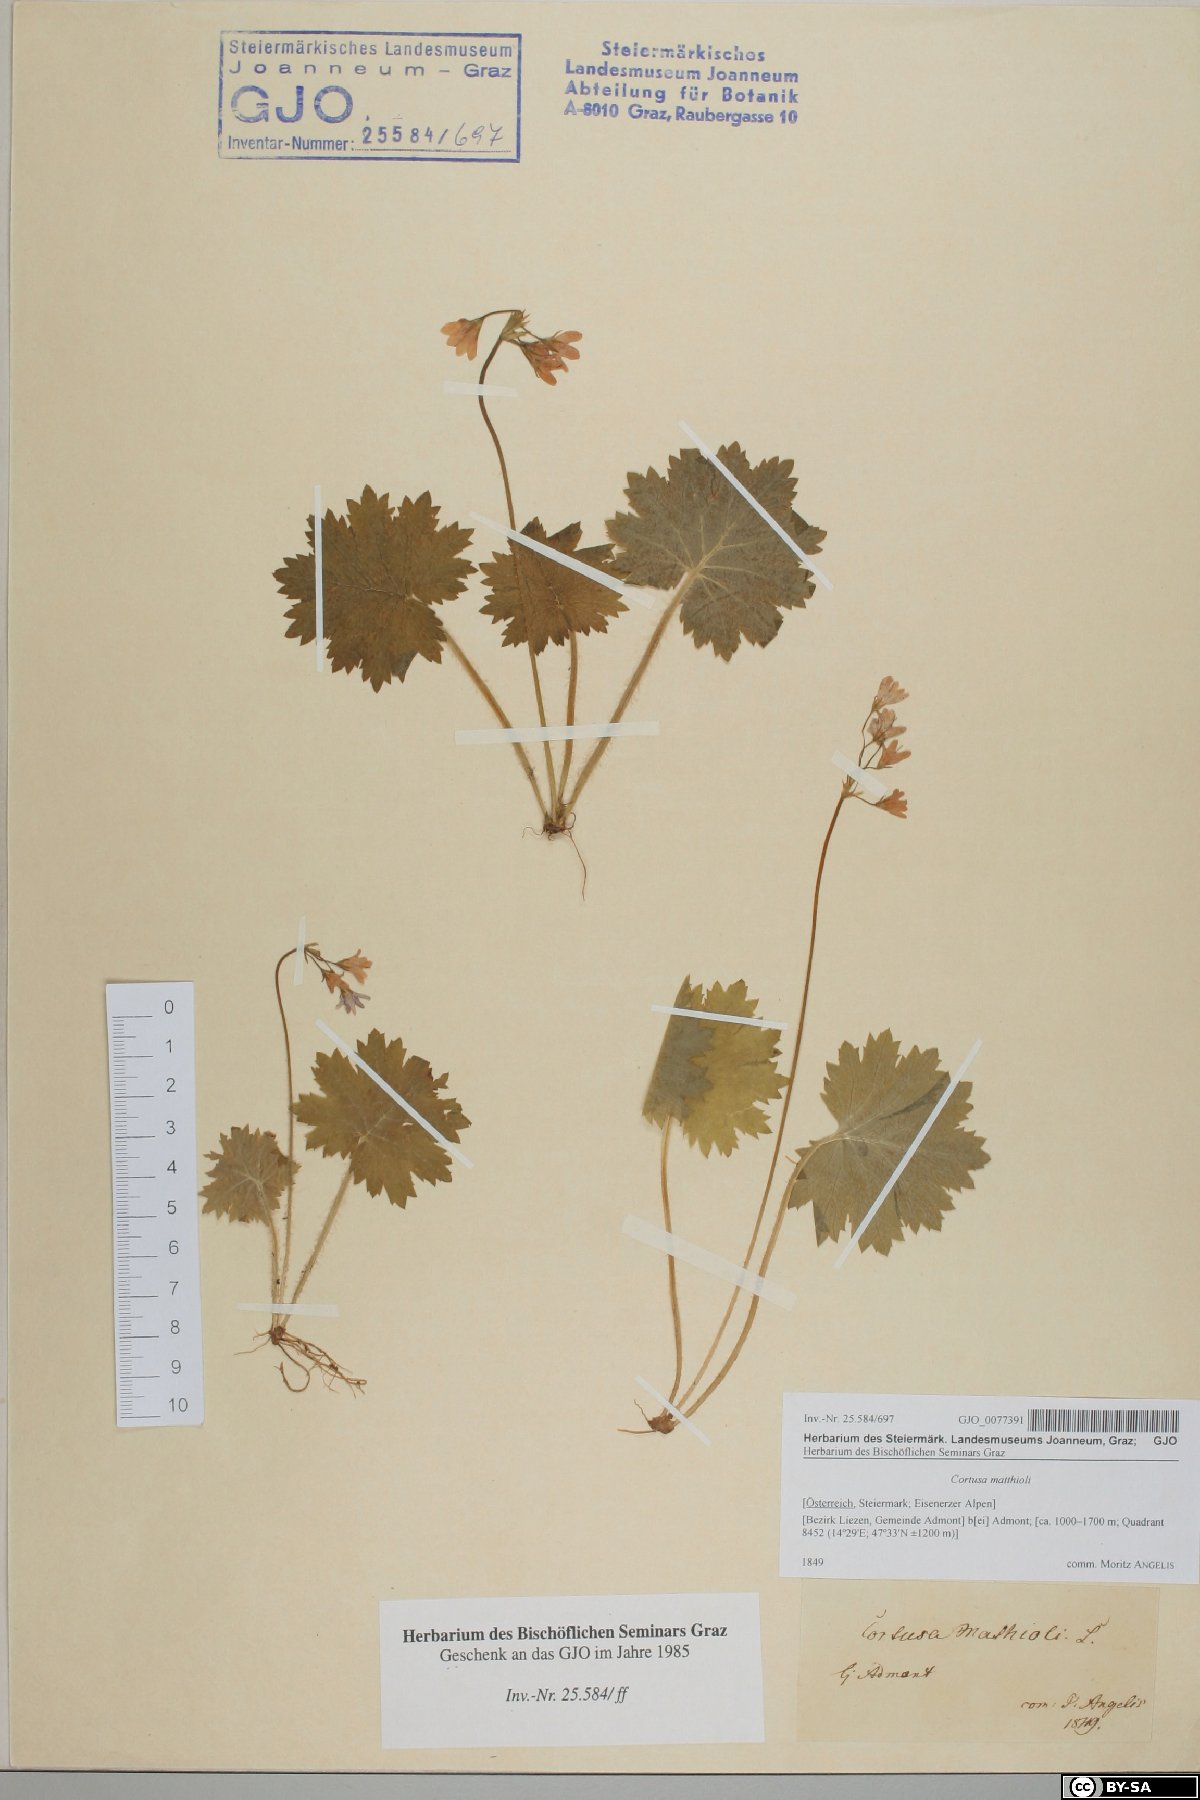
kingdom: Plantae
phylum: Tracheophyta
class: Magnoliopsida
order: Ericales
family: Primulaceae
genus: Primula
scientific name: Primula matthioli
